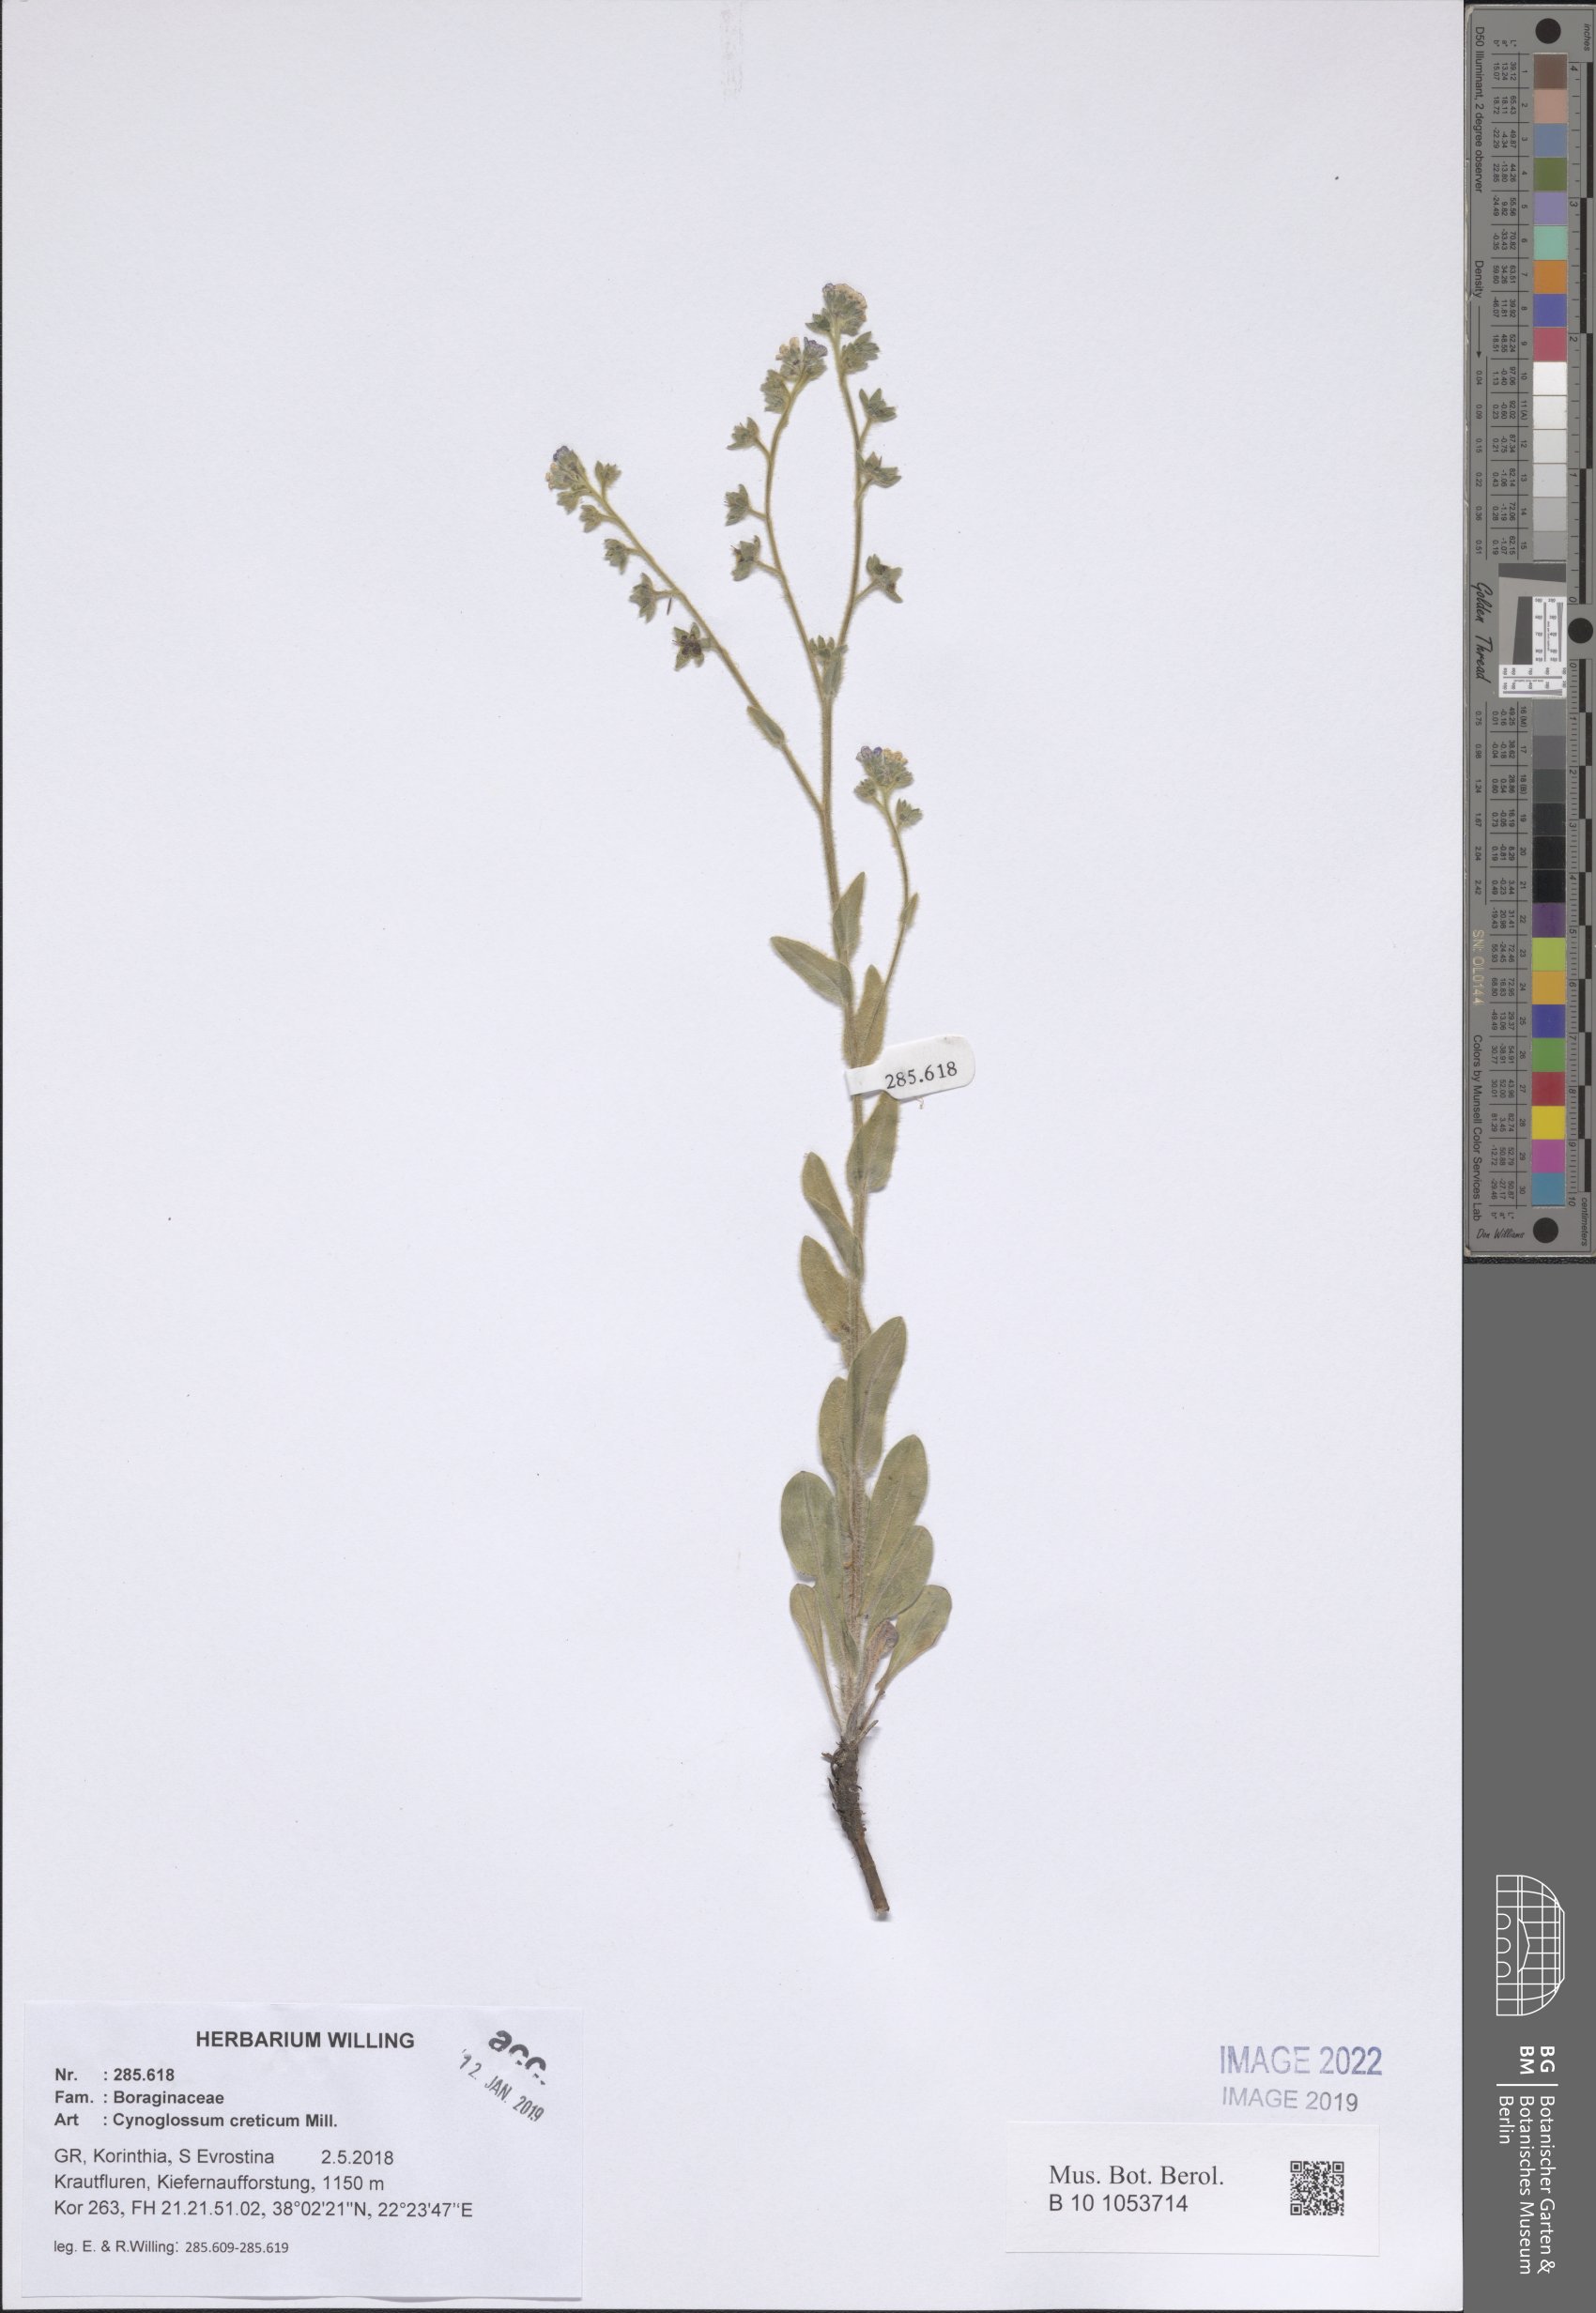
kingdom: Plantae
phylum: Tracheophyta
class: Magnoliopsida
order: Boraginales
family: Boraginaceae
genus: Cynoglossum
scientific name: Cynoglossum creticum
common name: Blue hound's tongue
